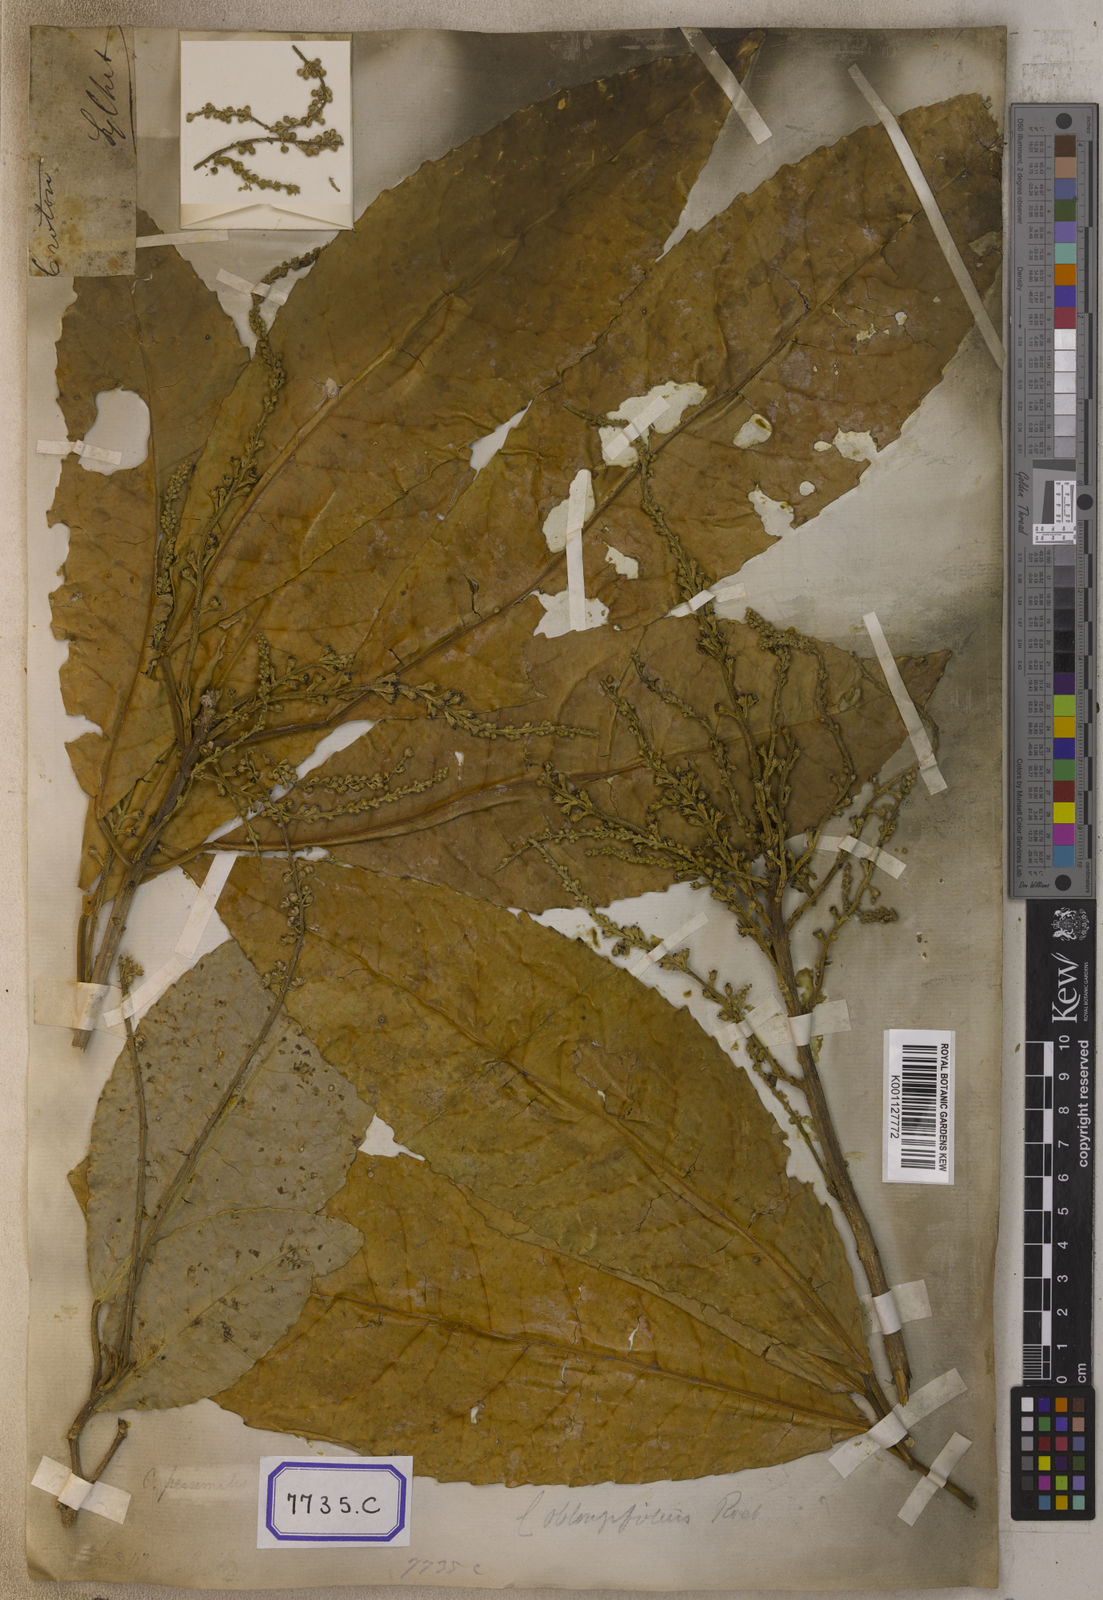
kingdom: Plantae
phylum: Tracheophyta
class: Magnoliopsida
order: Malpighiales
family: Euphorbiaceae
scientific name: Euphorbiaceae
